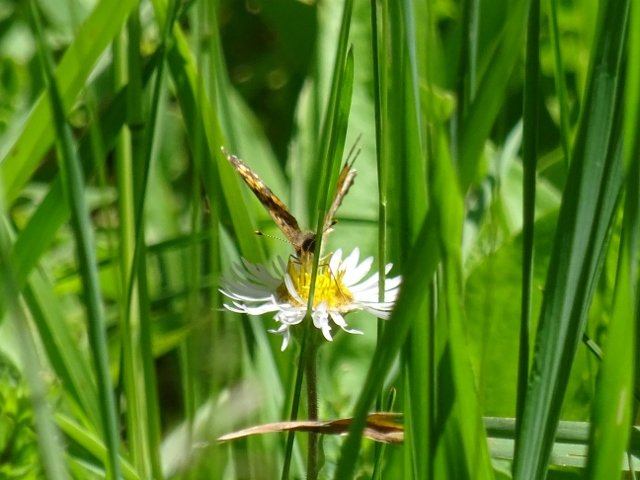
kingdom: Animalia
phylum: Arthropoda
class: Insecta
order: Lepidoptera
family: Nymphalidae
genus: Phyciodes
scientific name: Phyciodes tharos
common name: Northern Crescent
